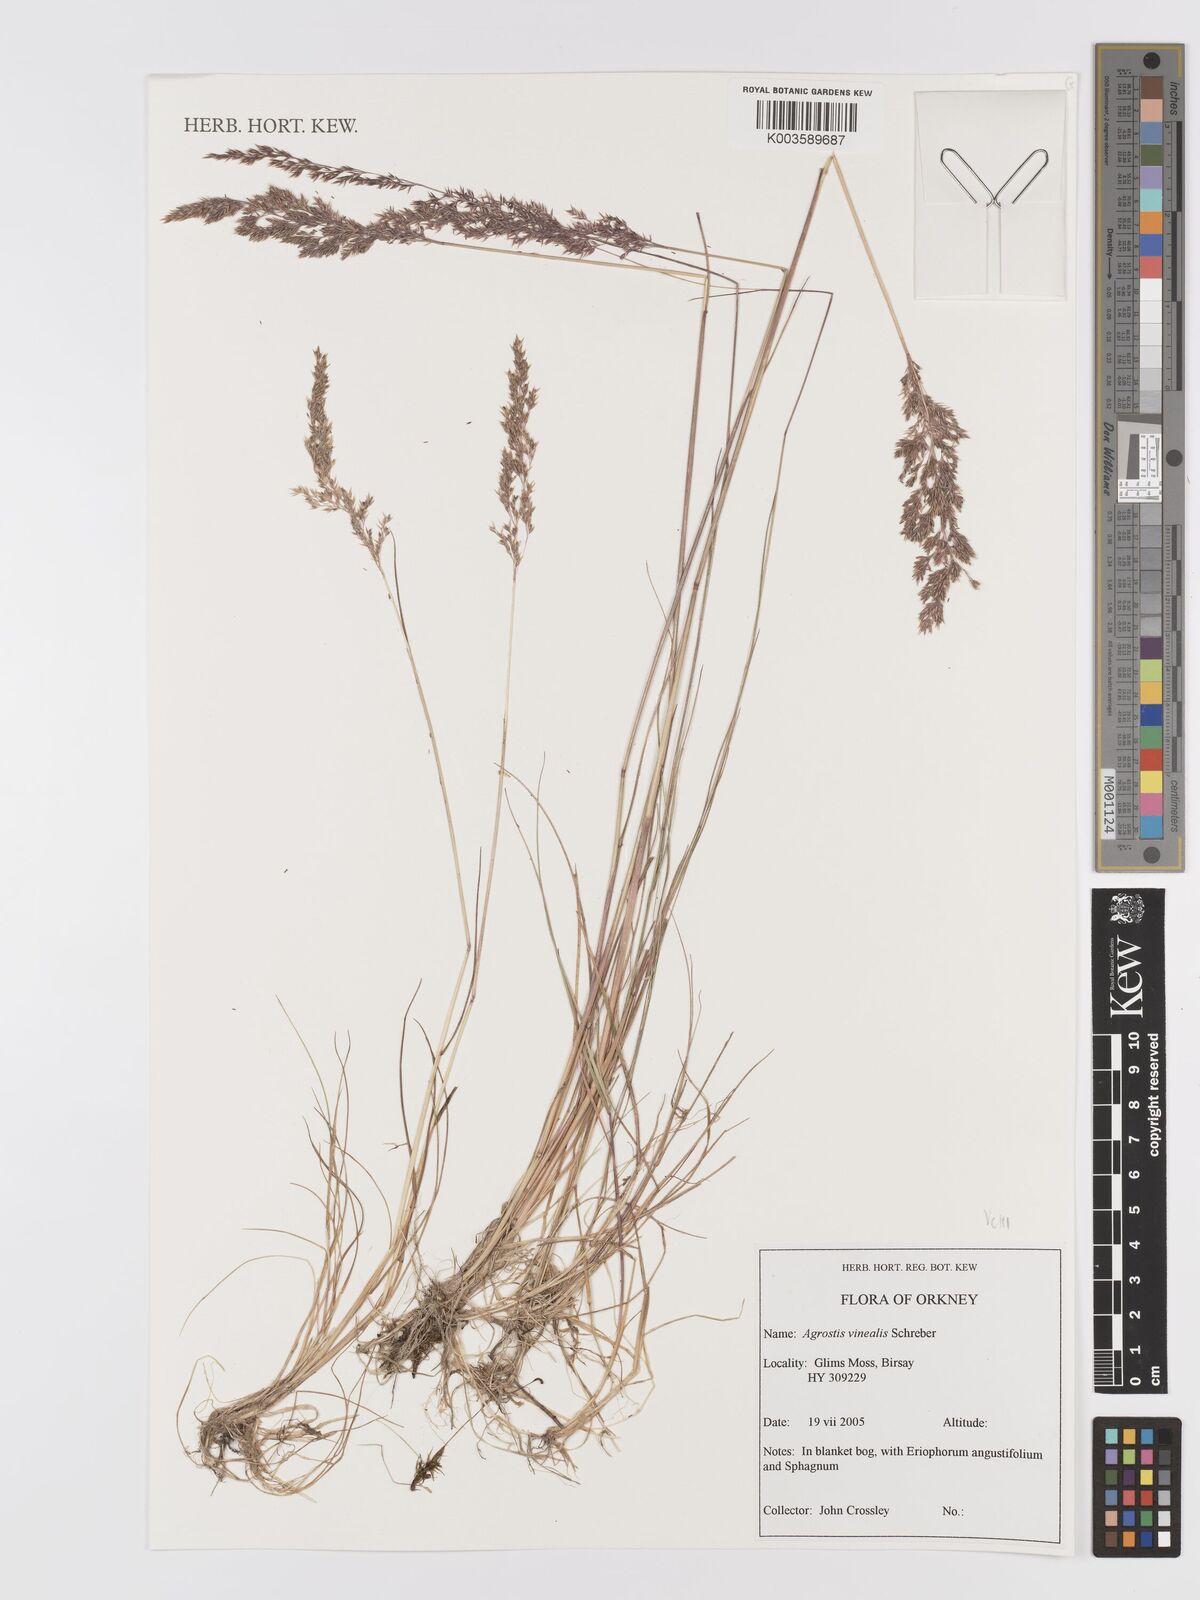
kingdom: Plantae
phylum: Tracheophyta
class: Liliopsida
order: Poales
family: Poaceae
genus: Agrostis
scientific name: Agrostis
